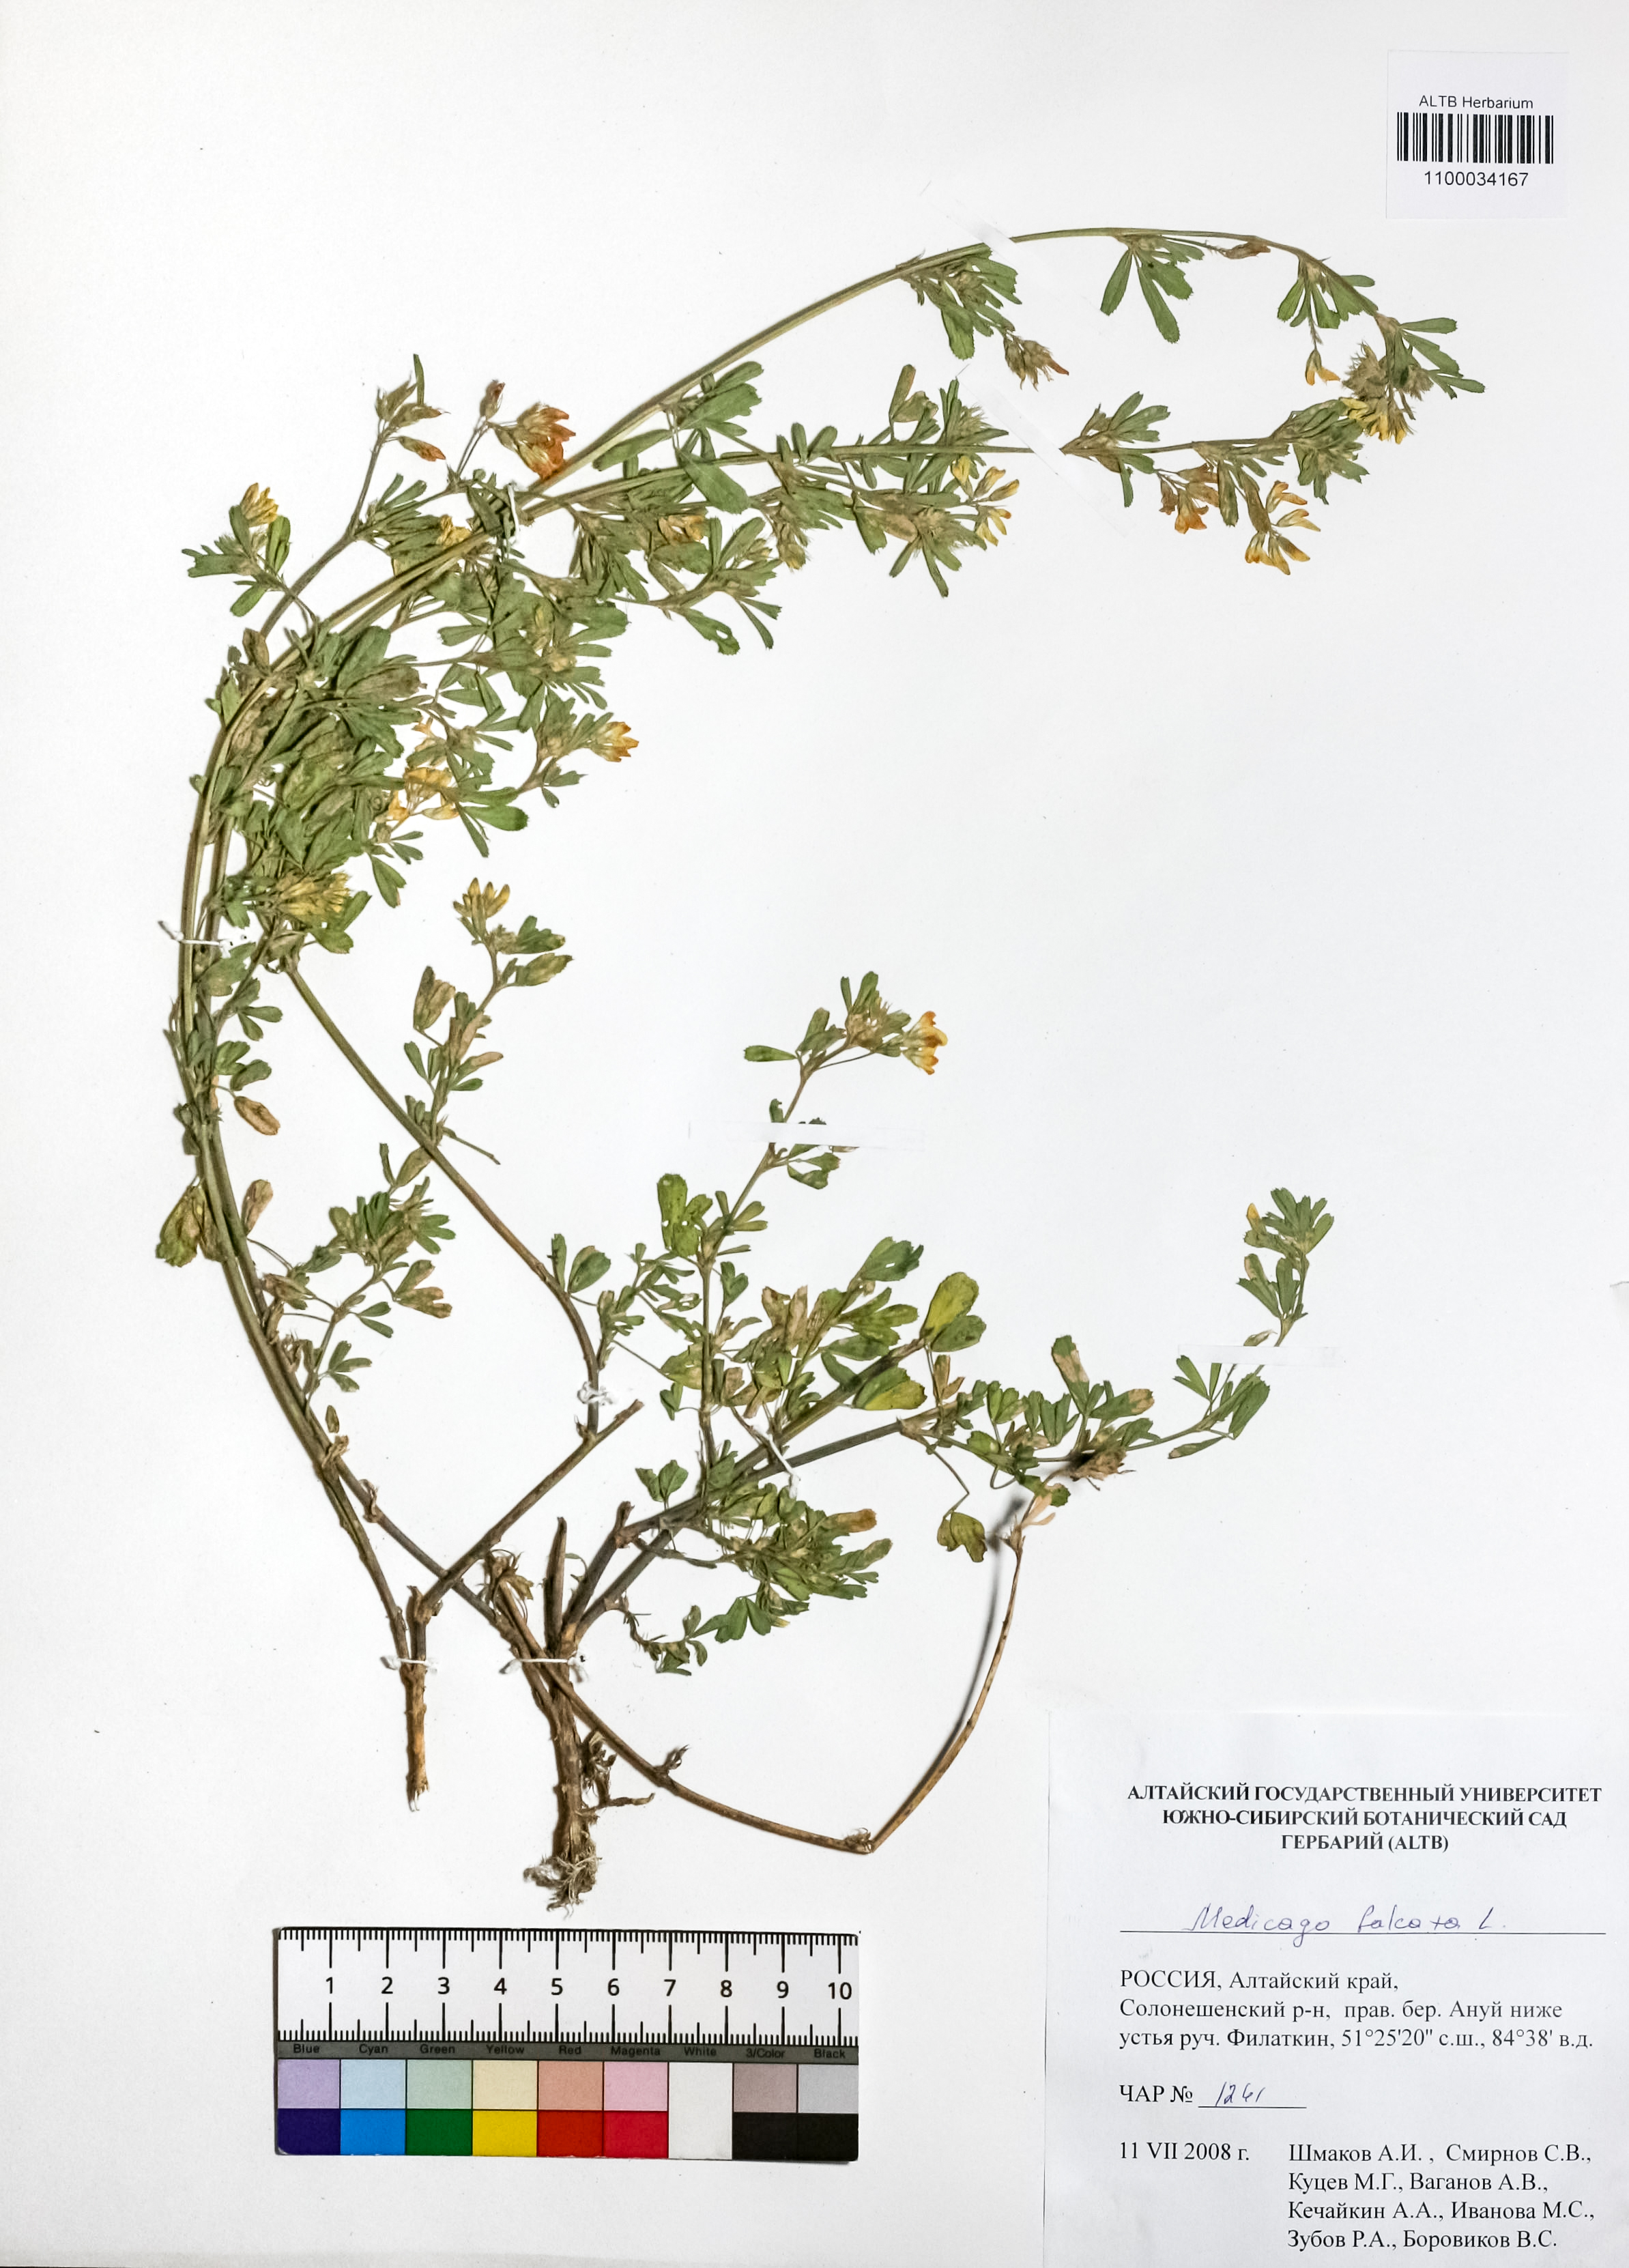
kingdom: Plantae
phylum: Tracheophyta
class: Magnoliopsida
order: Fabales
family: Fabaceae
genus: Medicago
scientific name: Medicago falcata
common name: Sickle medick
